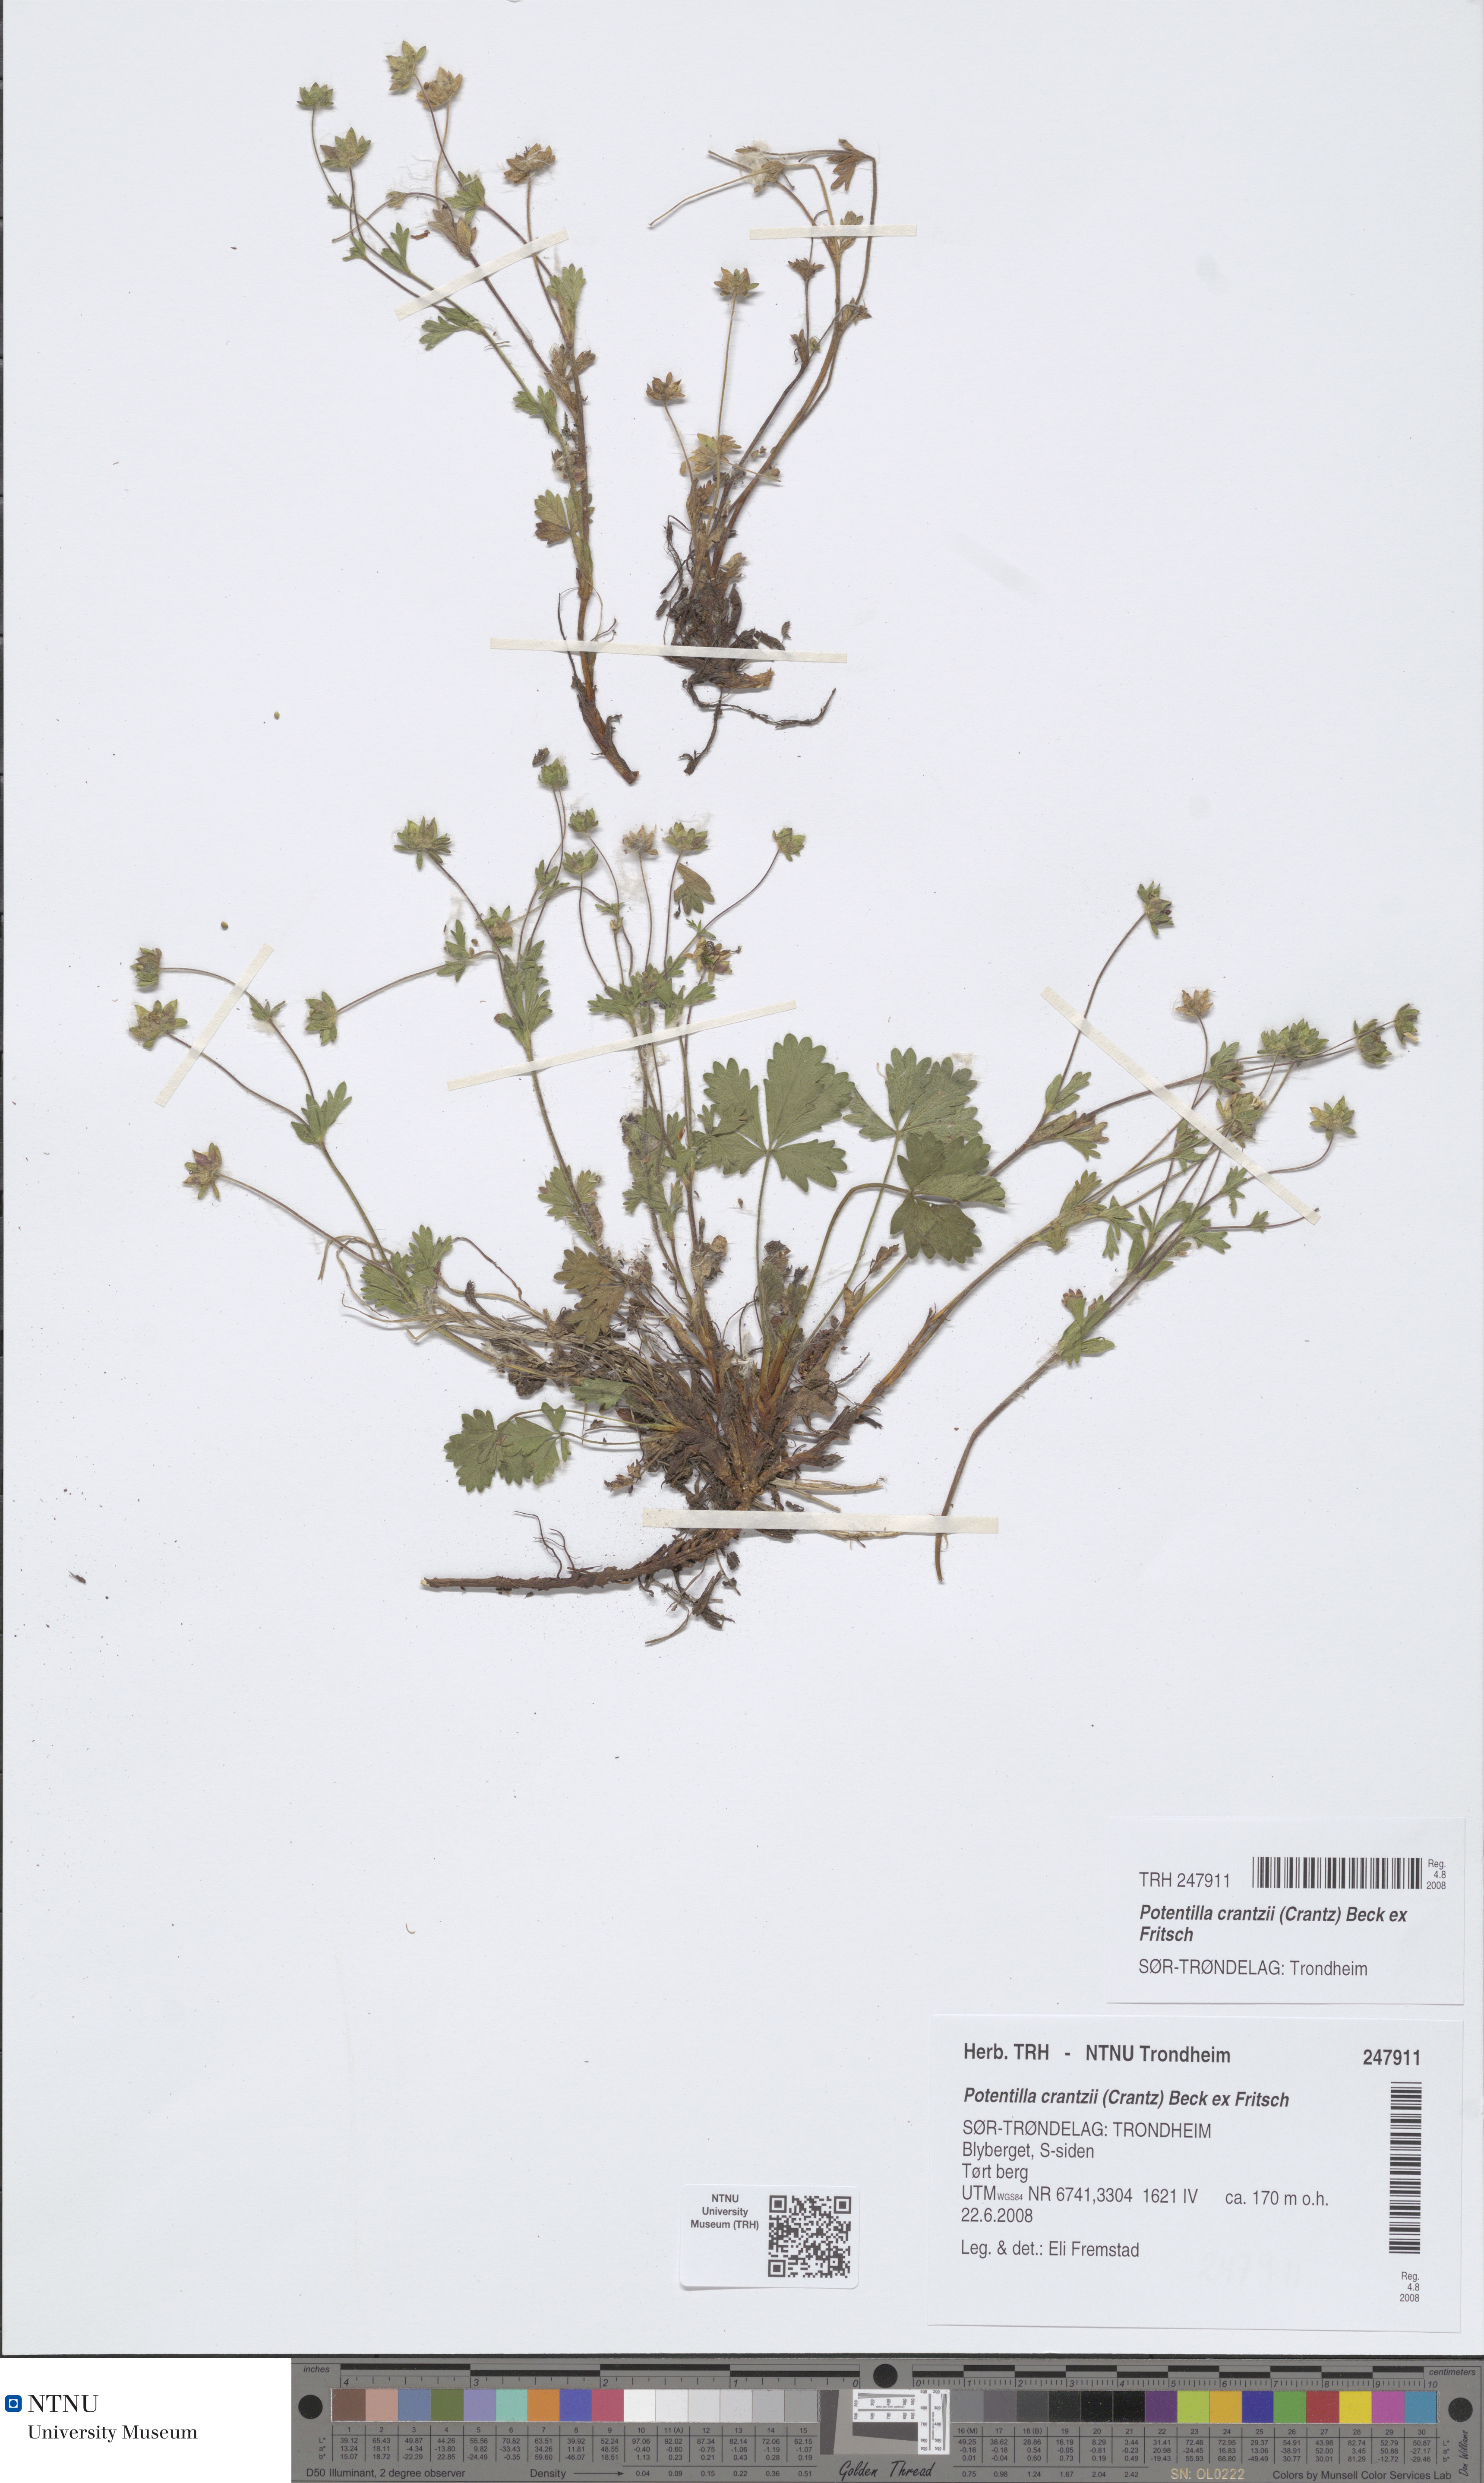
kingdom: Plantae
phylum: Tracheophyta
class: Magnoliopsida
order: Rosales
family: Rosaceae
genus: Potentilla
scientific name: Potentilla crantzii
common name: Alpine cinquefoil
